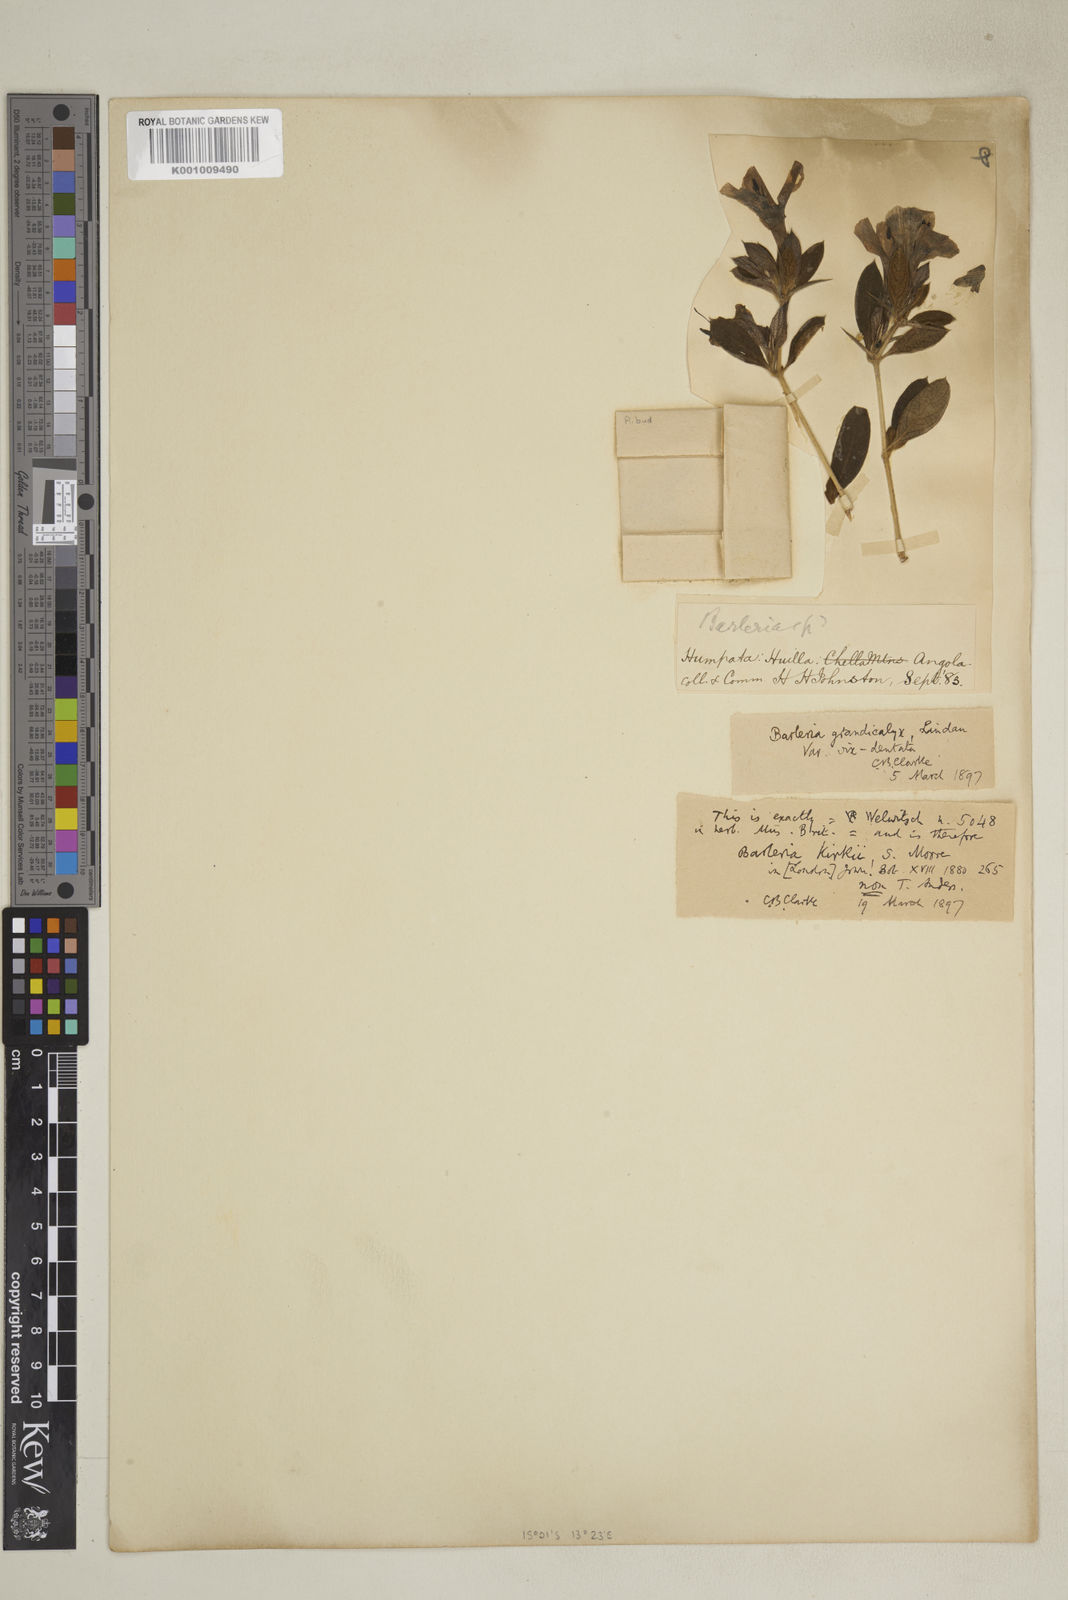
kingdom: Plantae
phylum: Tracheophyta
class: Magnoliopsida
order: Lamiales
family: Acanthaceae
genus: Barleria
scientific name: Barleria
